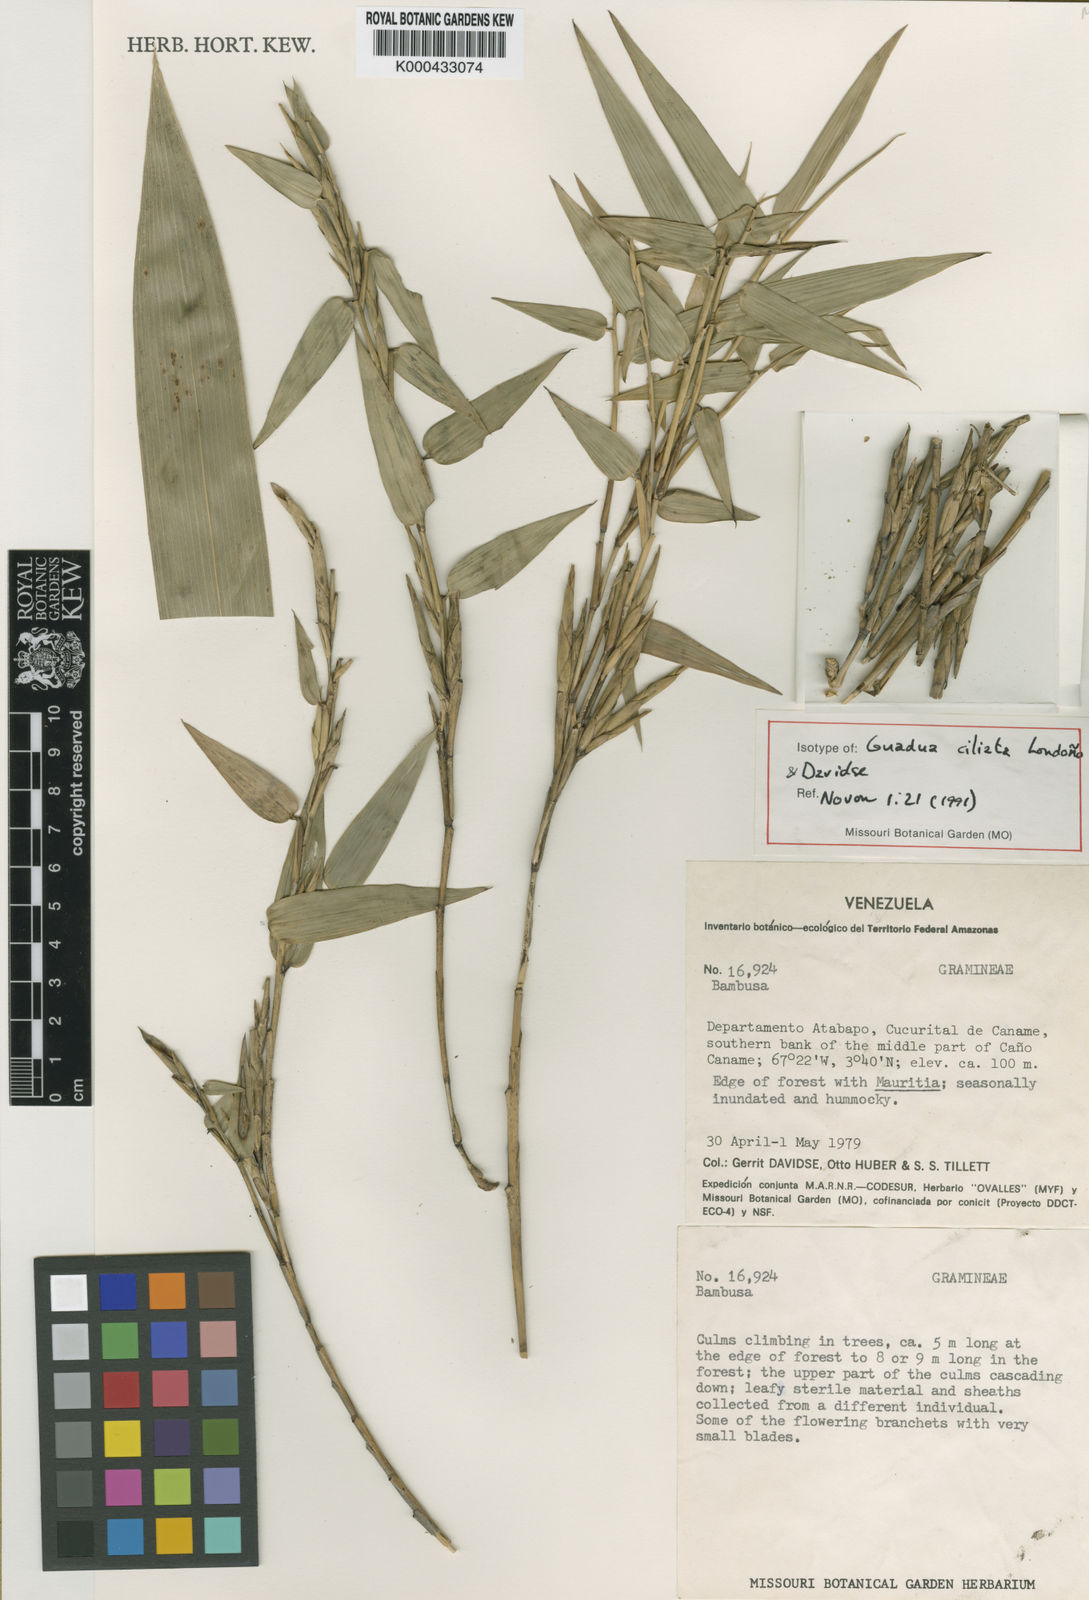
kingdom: Plantae
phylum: Tracheophyta
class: Liliopsida
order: Poales
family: Poaceae
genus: Guadua
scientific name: Guadua
